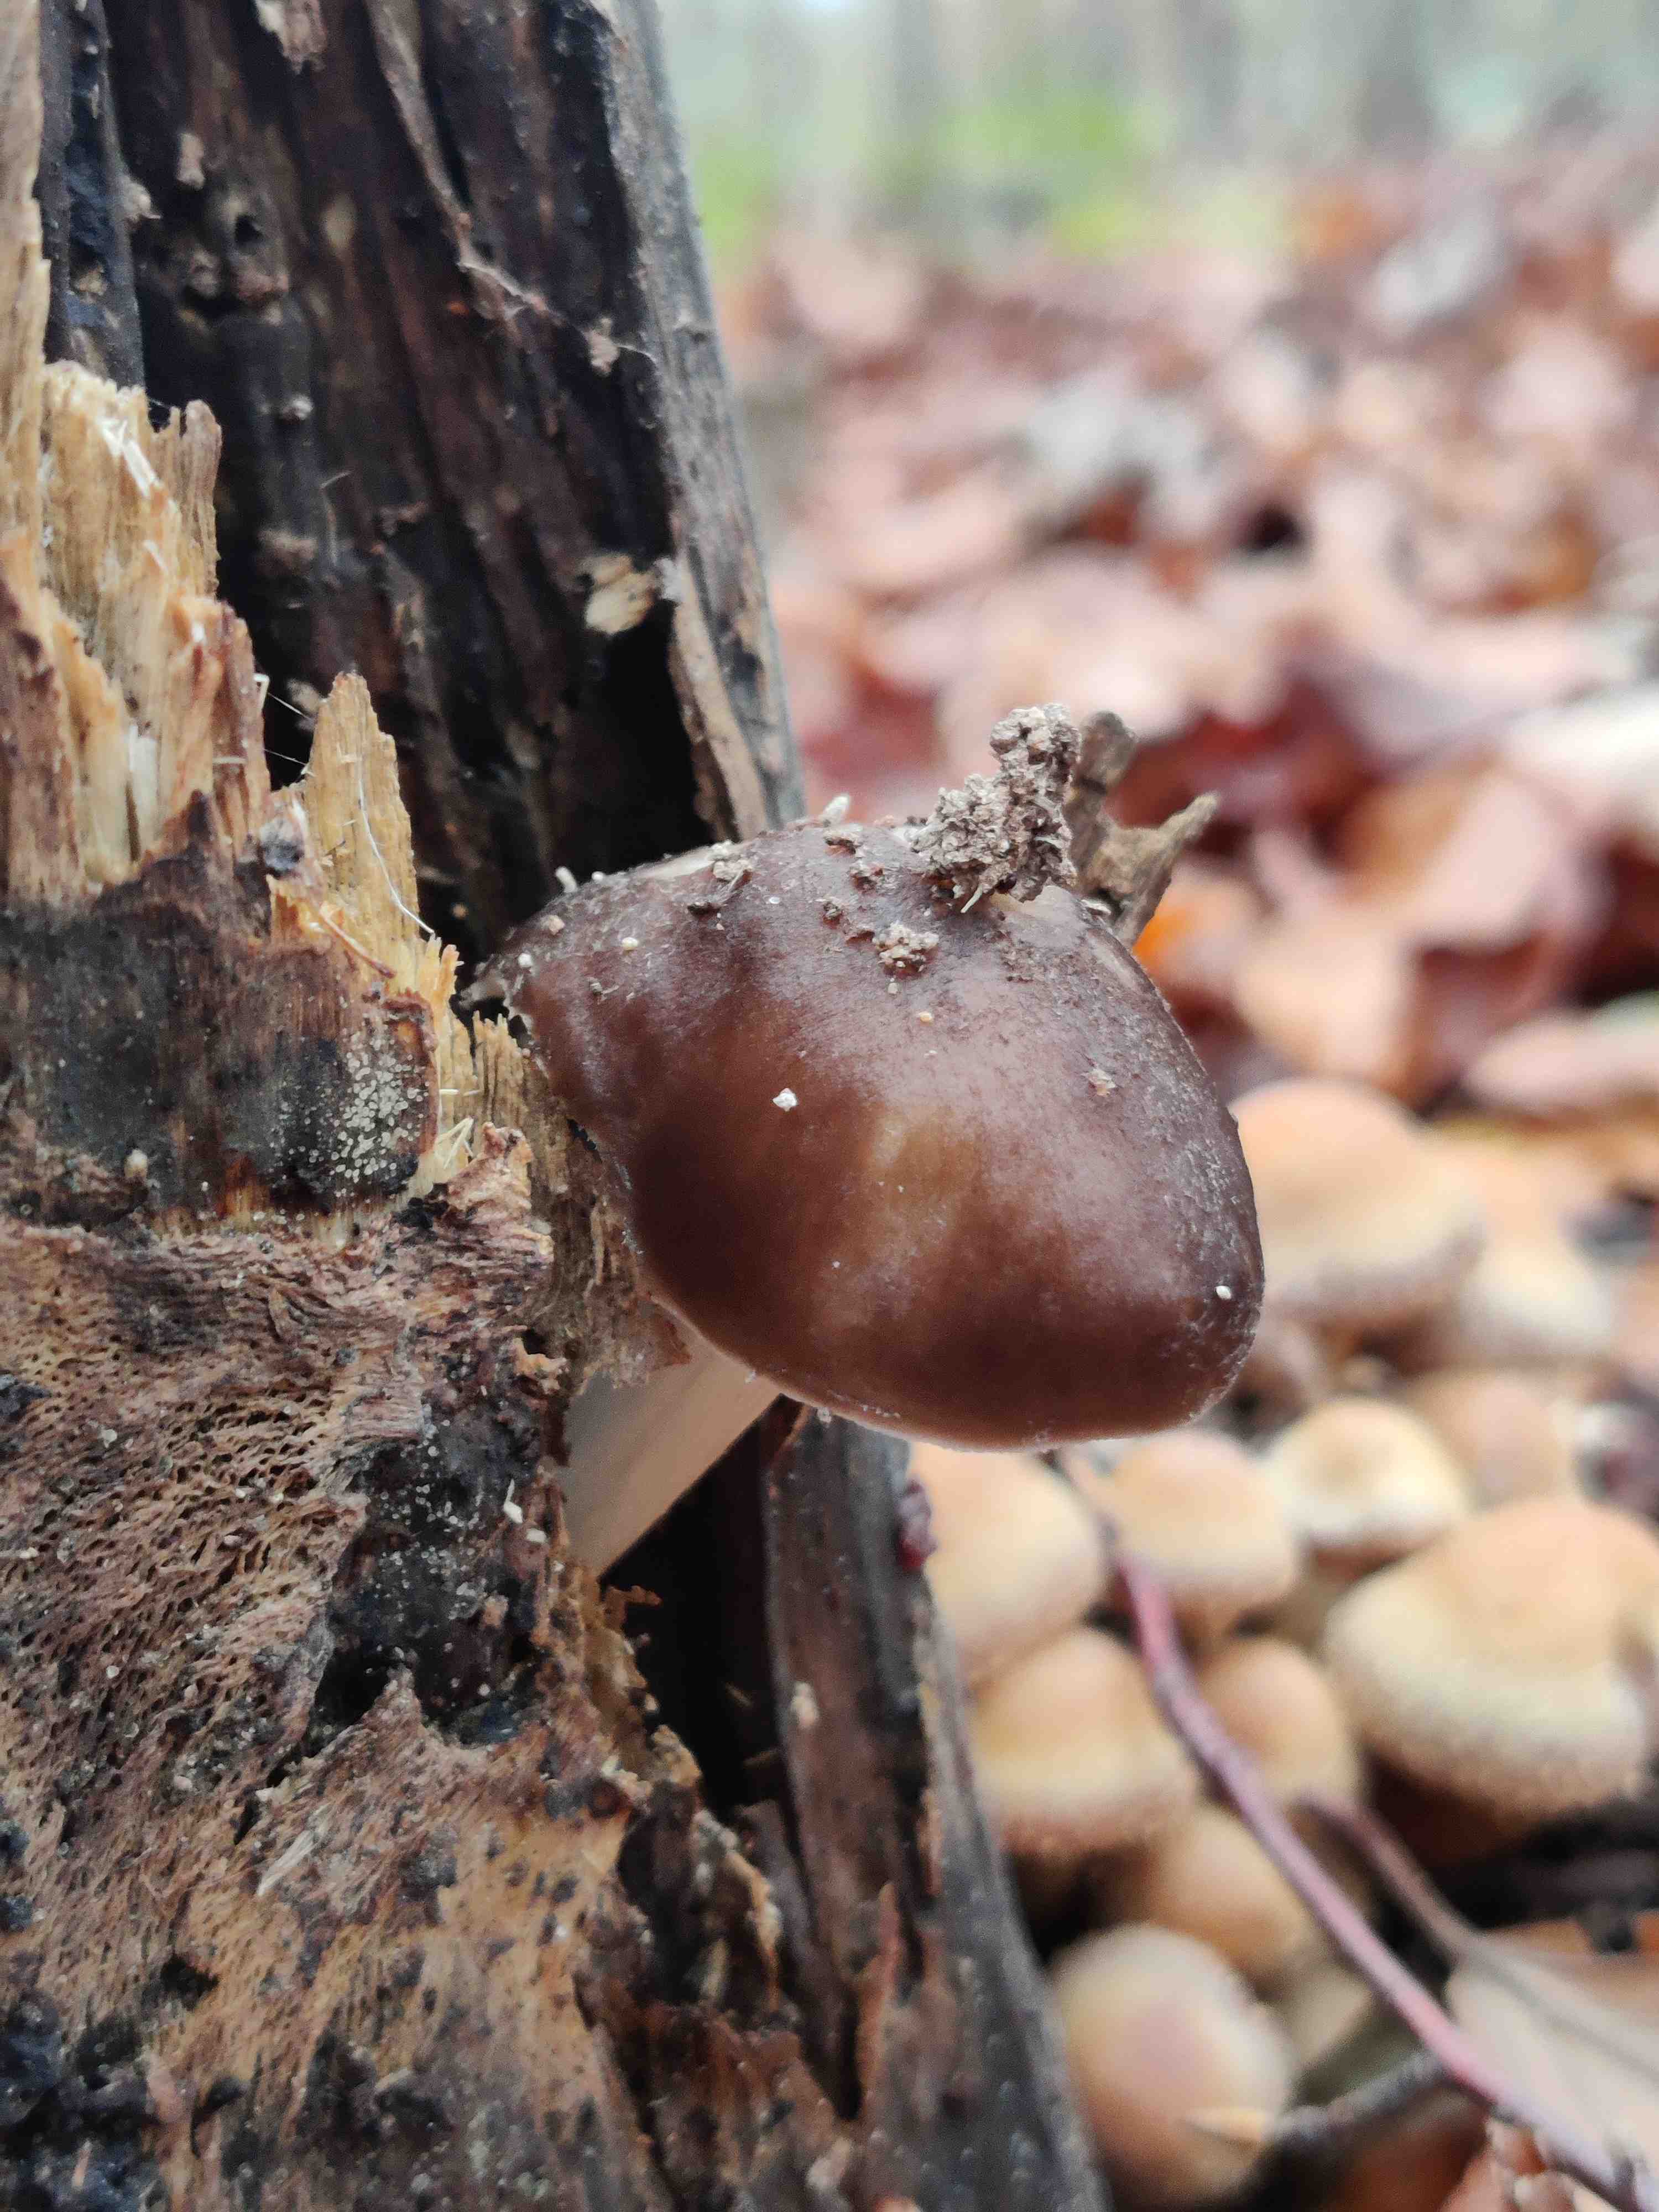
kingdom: Fungi
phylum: Basidiomycota
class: Agaricomycetes
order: Agaricales
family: Pluteaceae
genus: Pluteus
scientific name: Pluteus cervinus
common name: sodfarvet skærmhat
